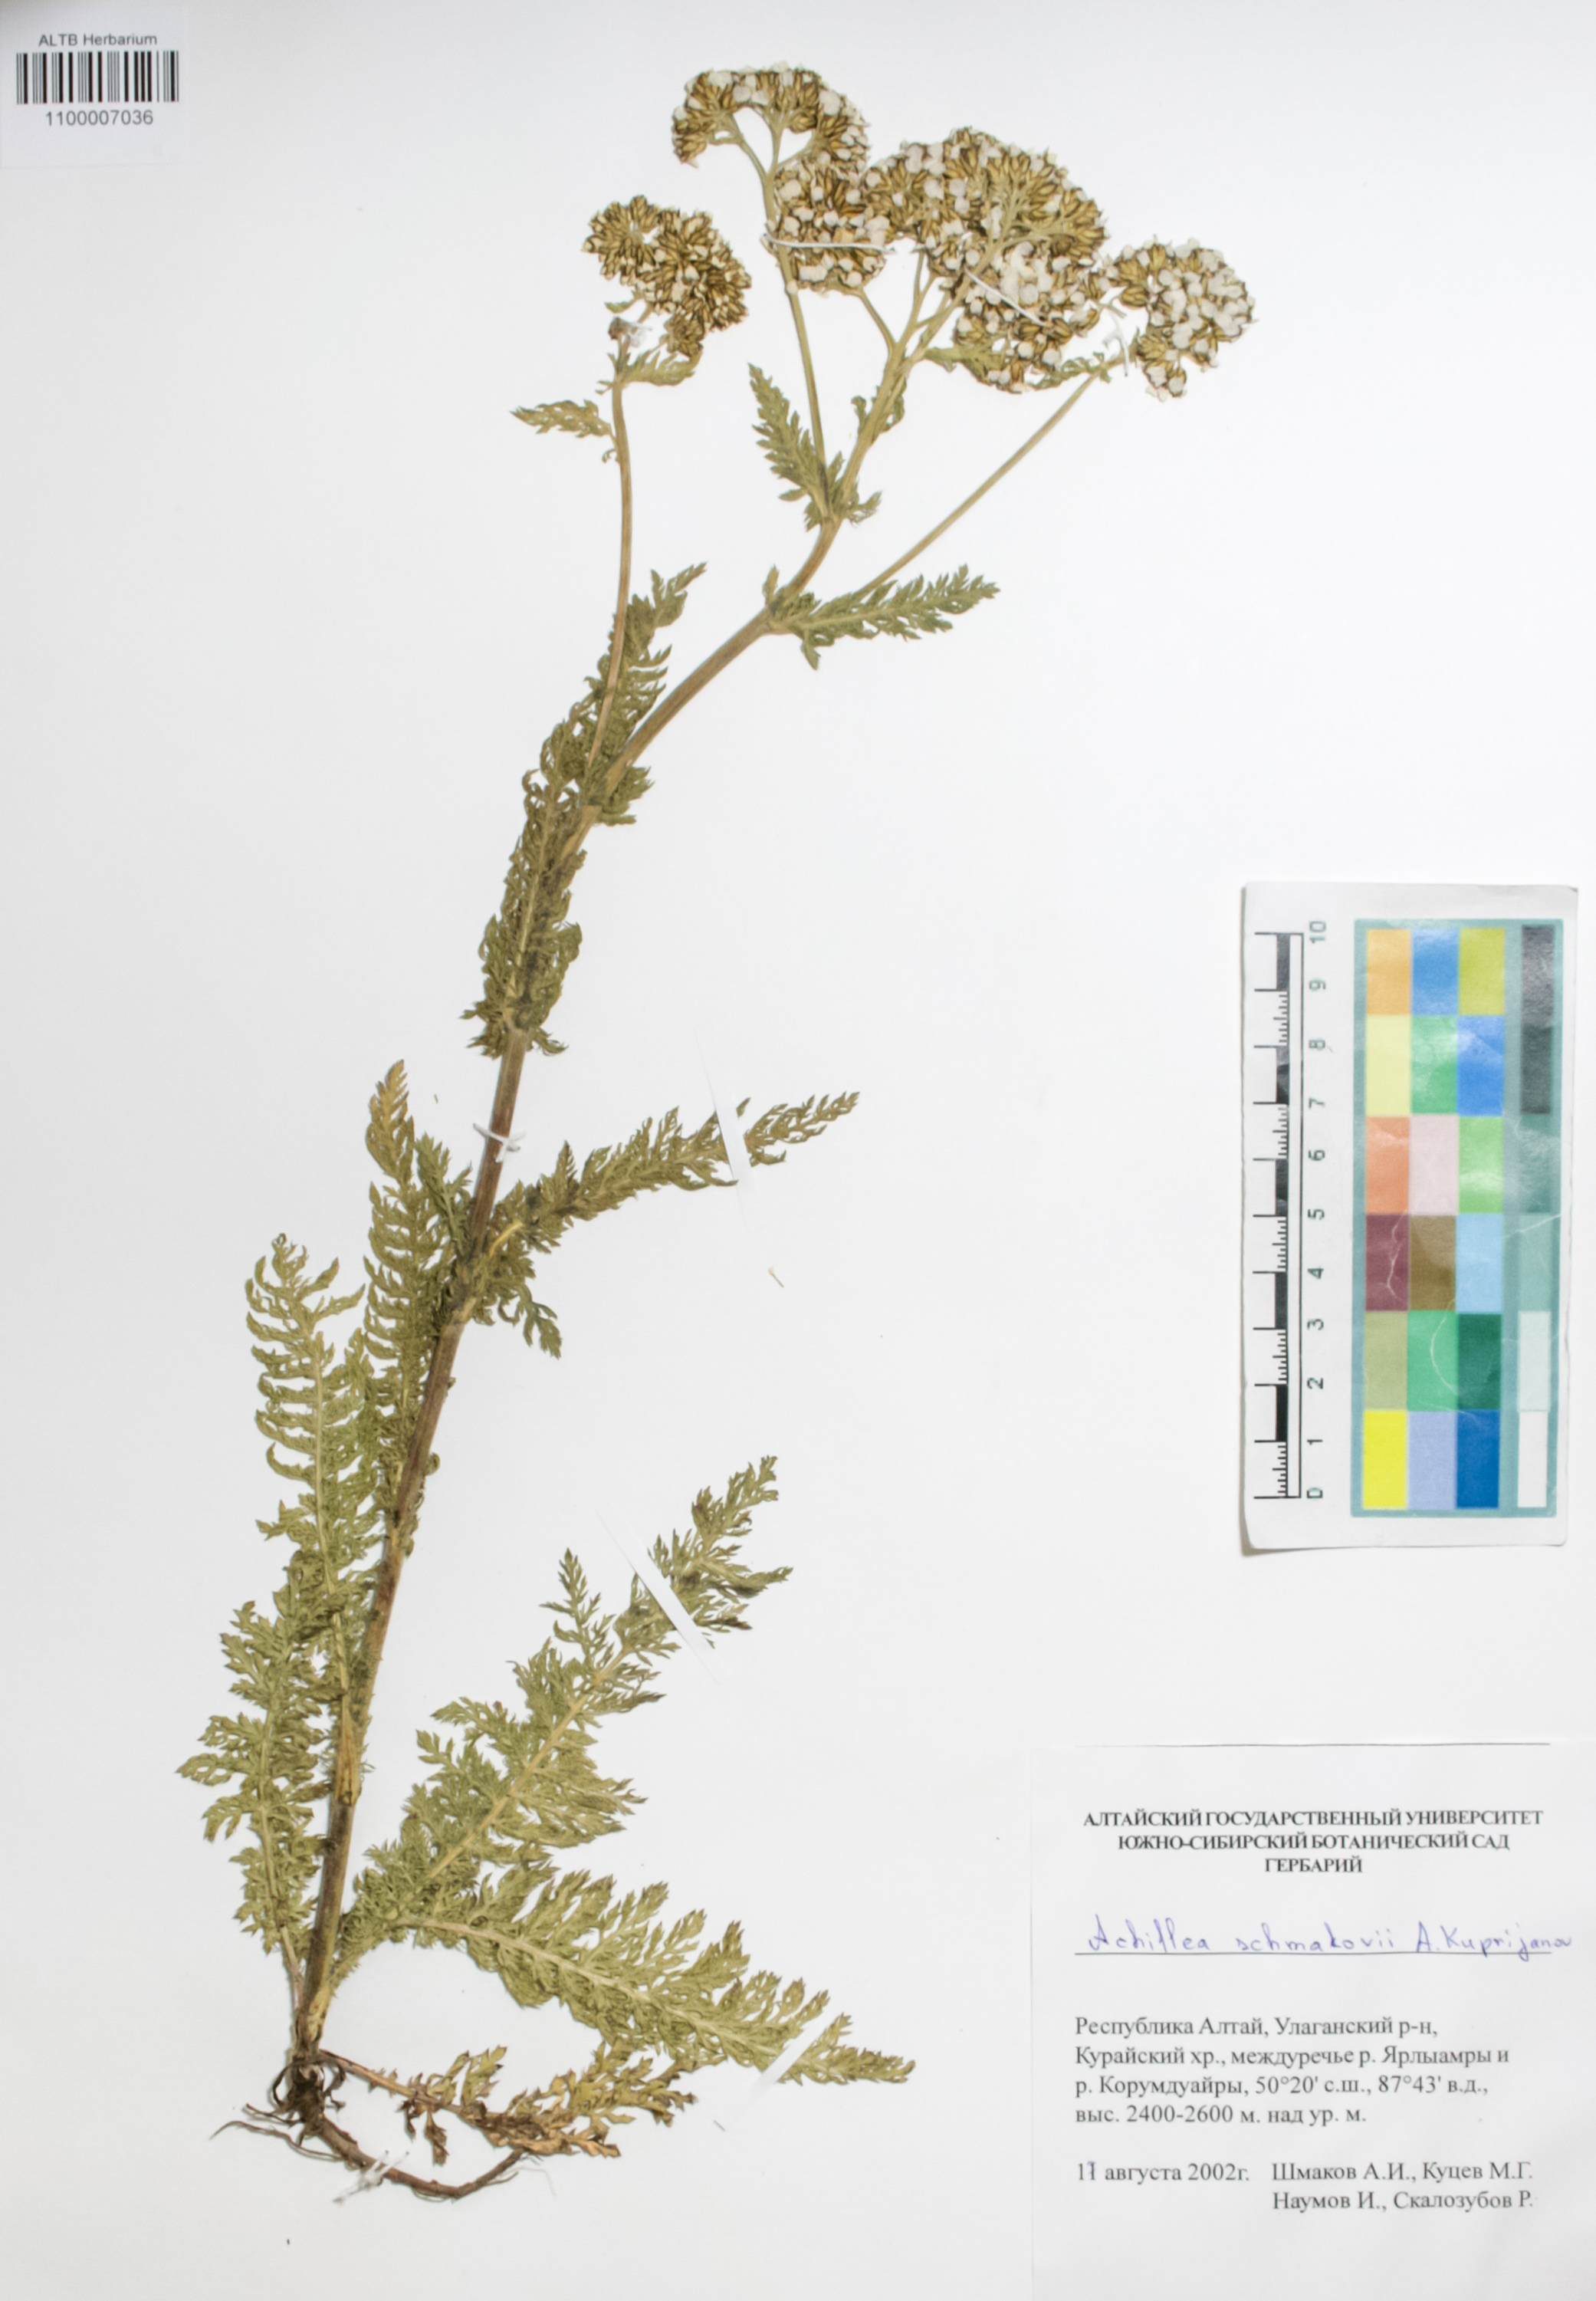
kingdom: Plantae
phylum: Tracheophyta
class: Magnoliopsida
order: Asterales
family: Asteraceae
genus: Achillea
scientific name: Achillea schmakovii
